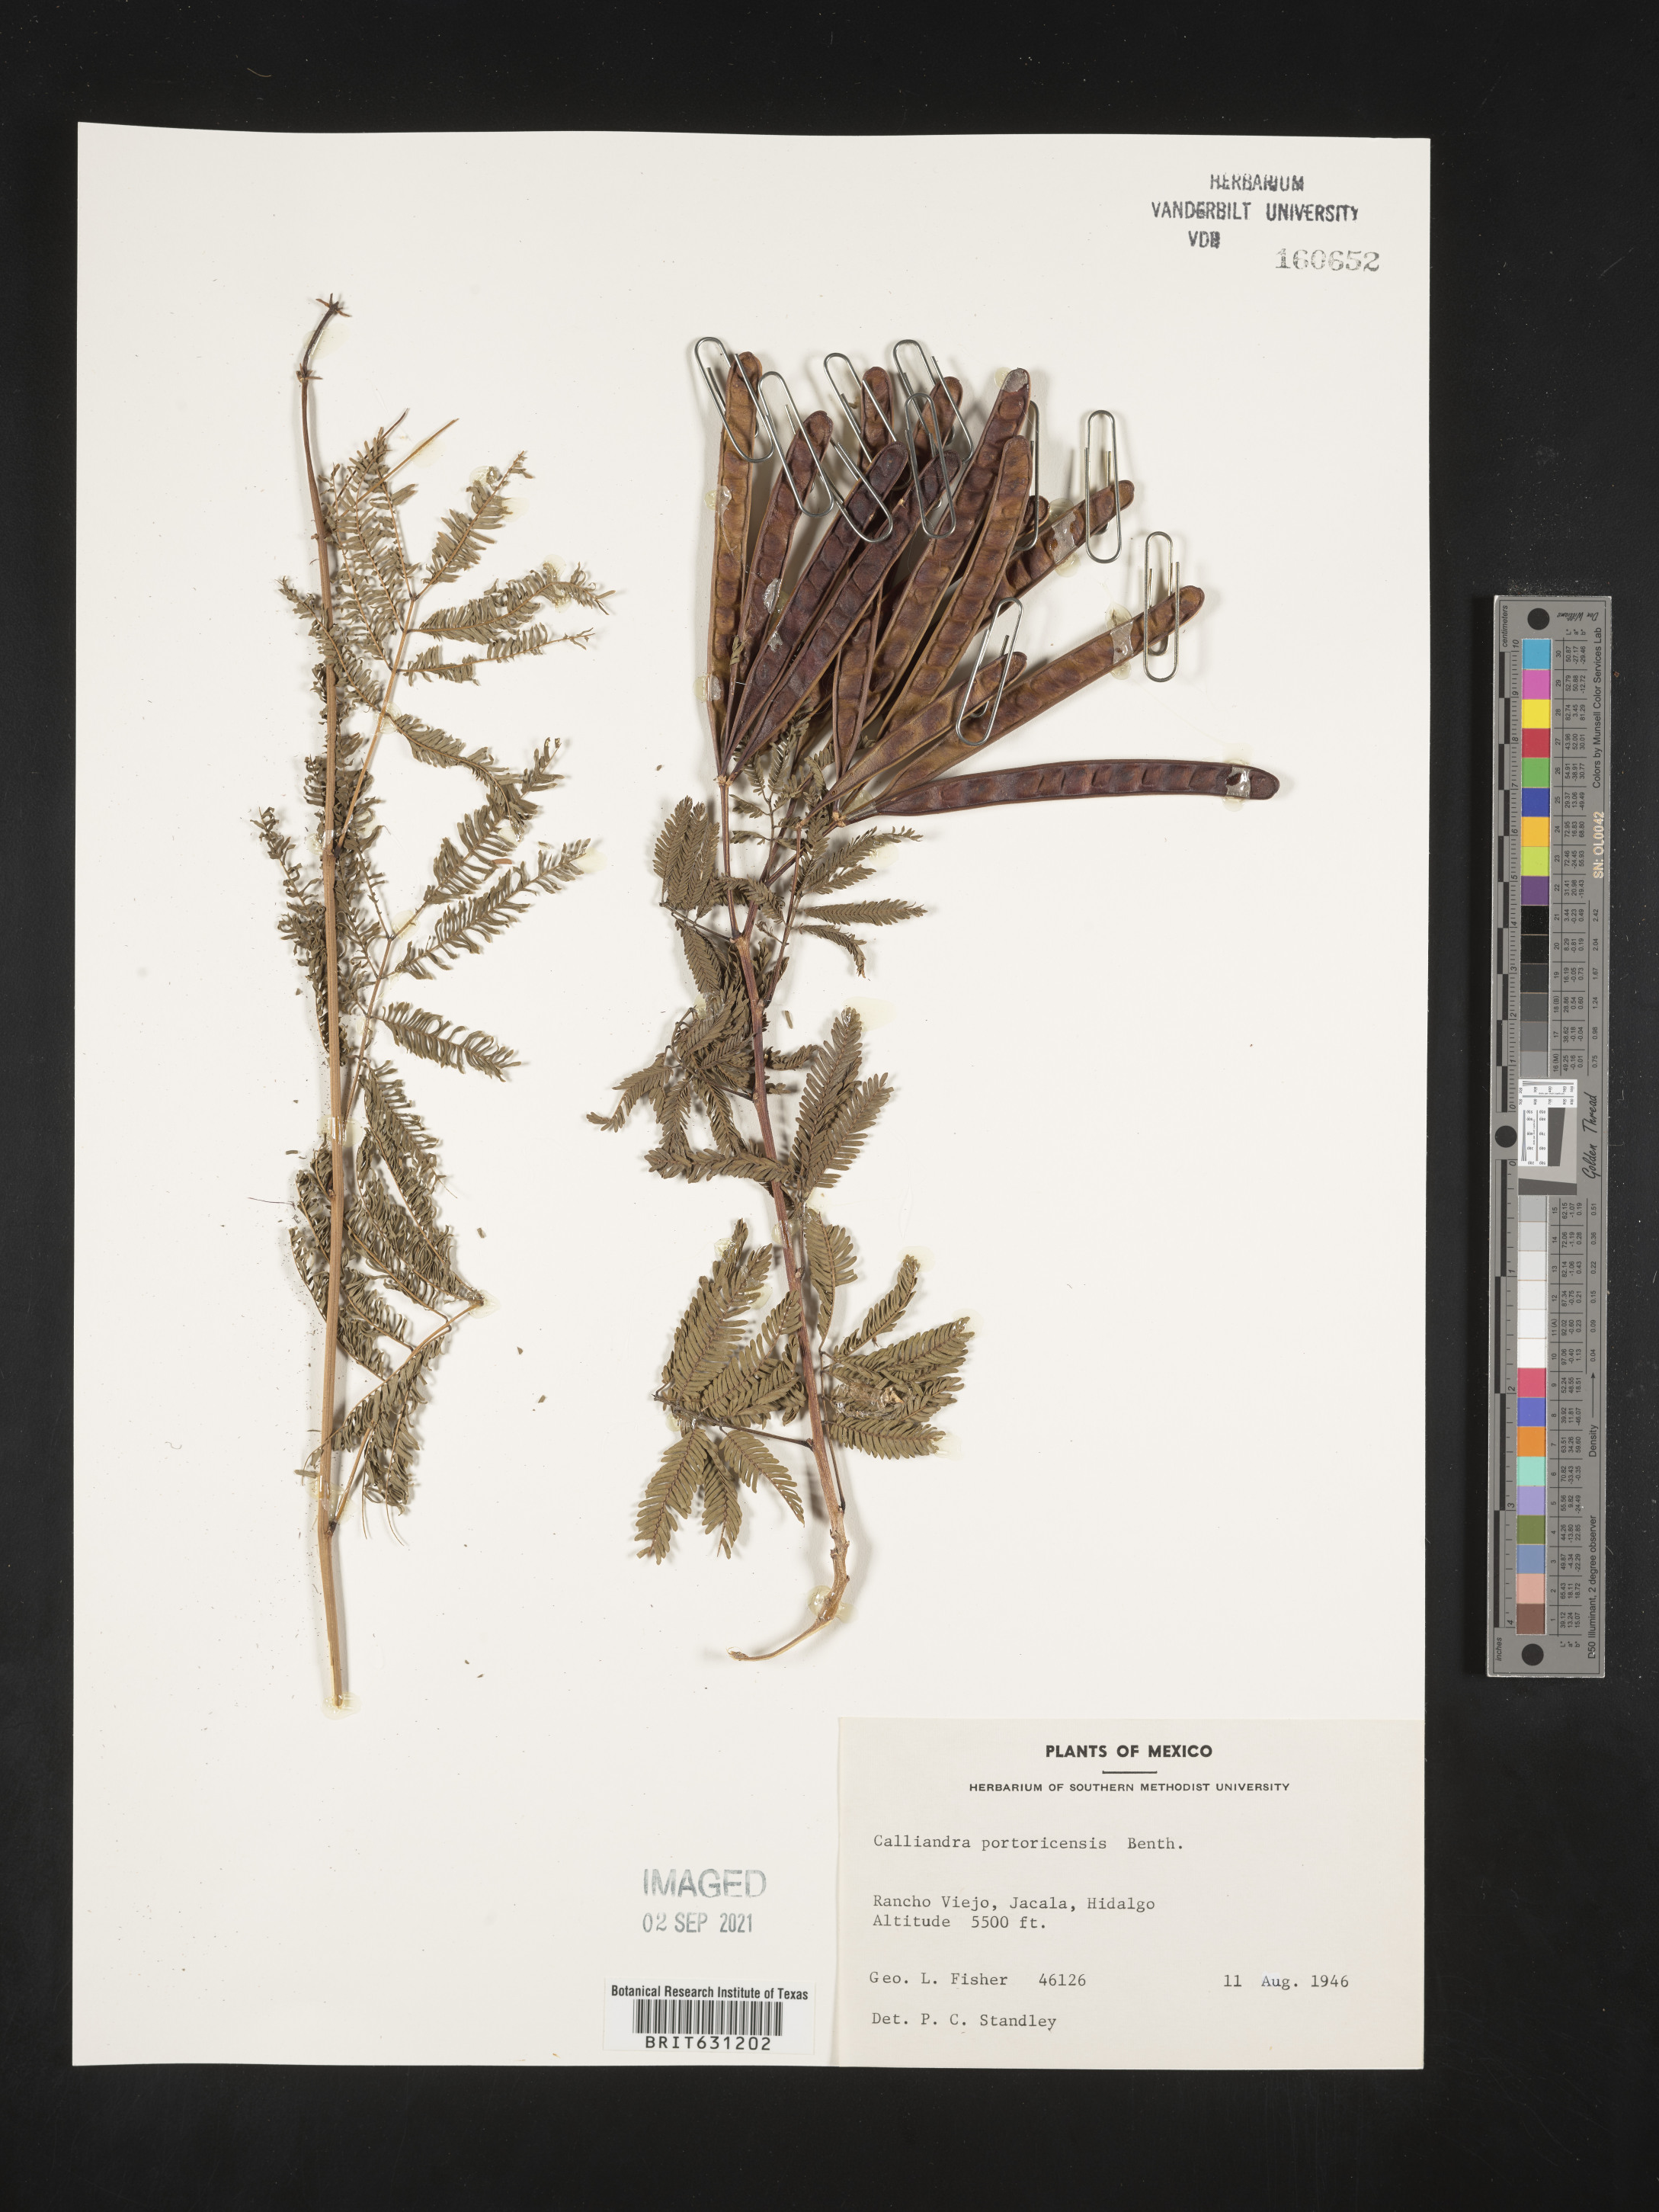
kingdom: Plantae
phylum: Tracheophyta
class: Magnoliopsida
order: Fabales
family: Fabaceae
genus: Zapoteca
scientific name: Zapoteca portoricensis
